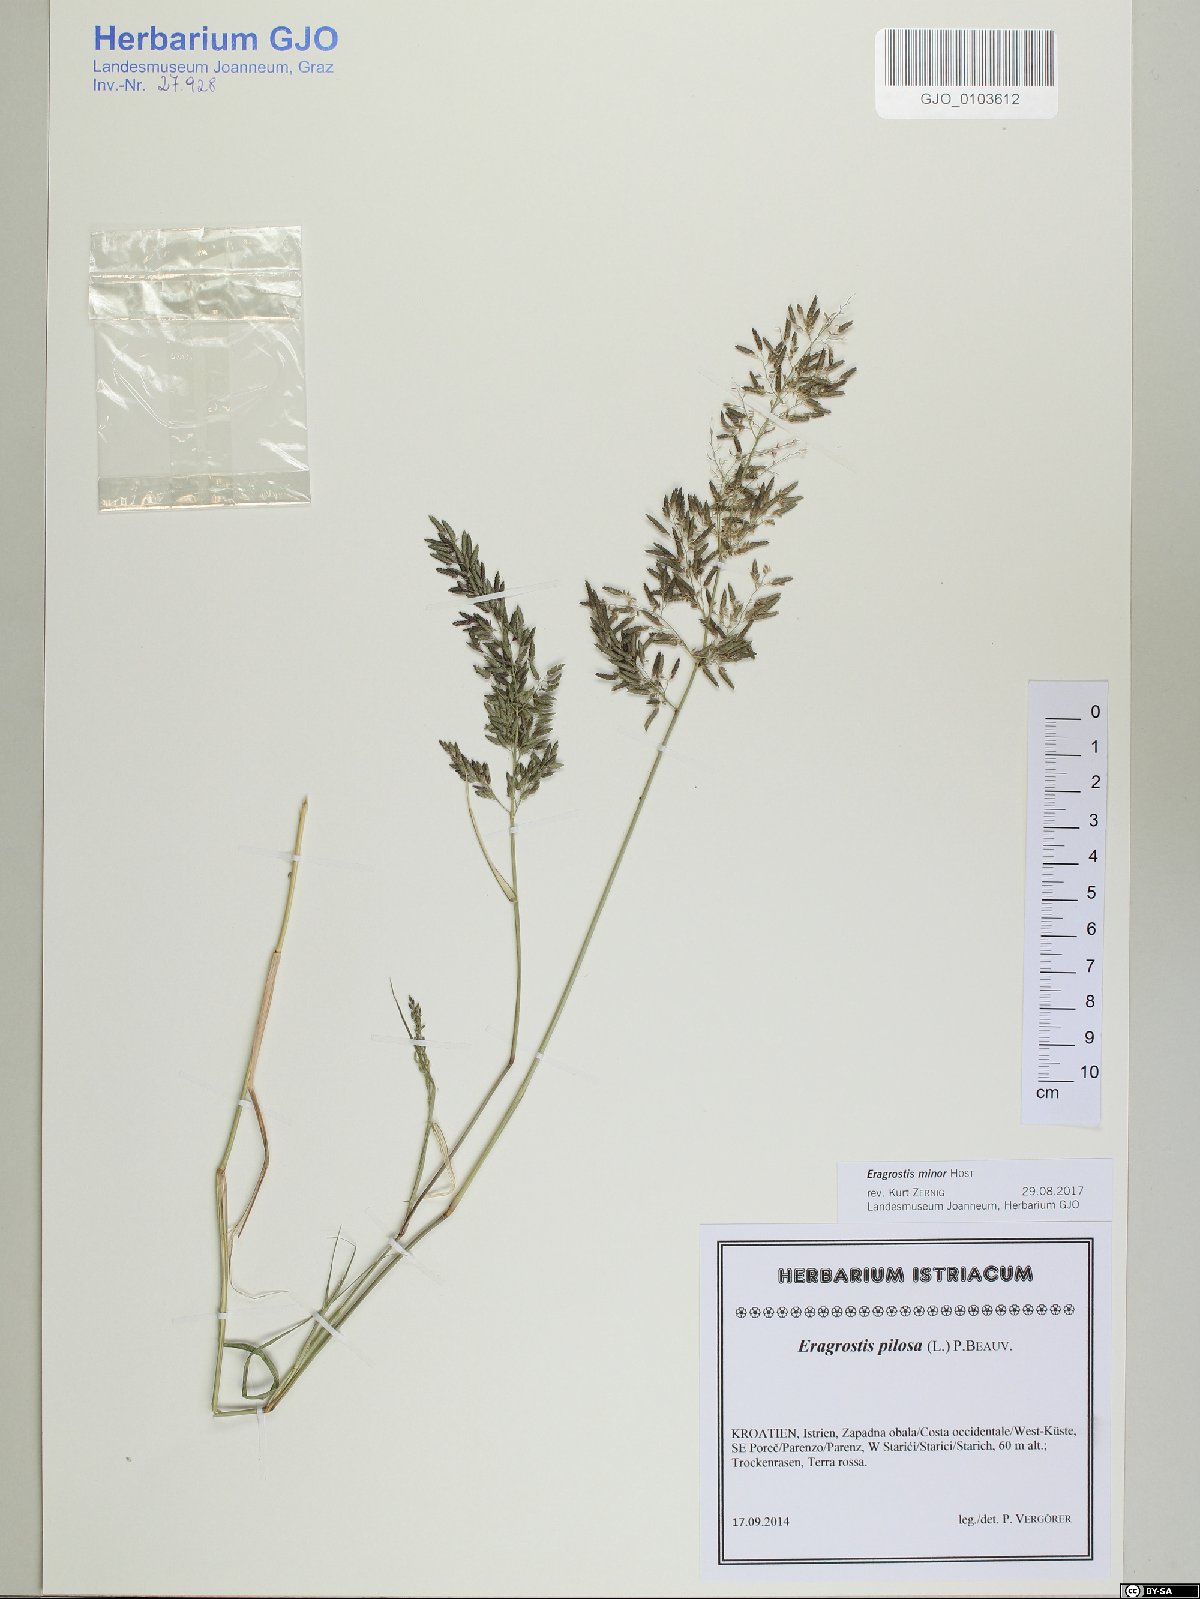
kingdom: Plantae
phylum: Tracheophyta
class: Liliopsida
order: Poales
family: Poaceae
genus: Eragrostis
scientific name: Eragrostis minor
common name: Small love-grass
